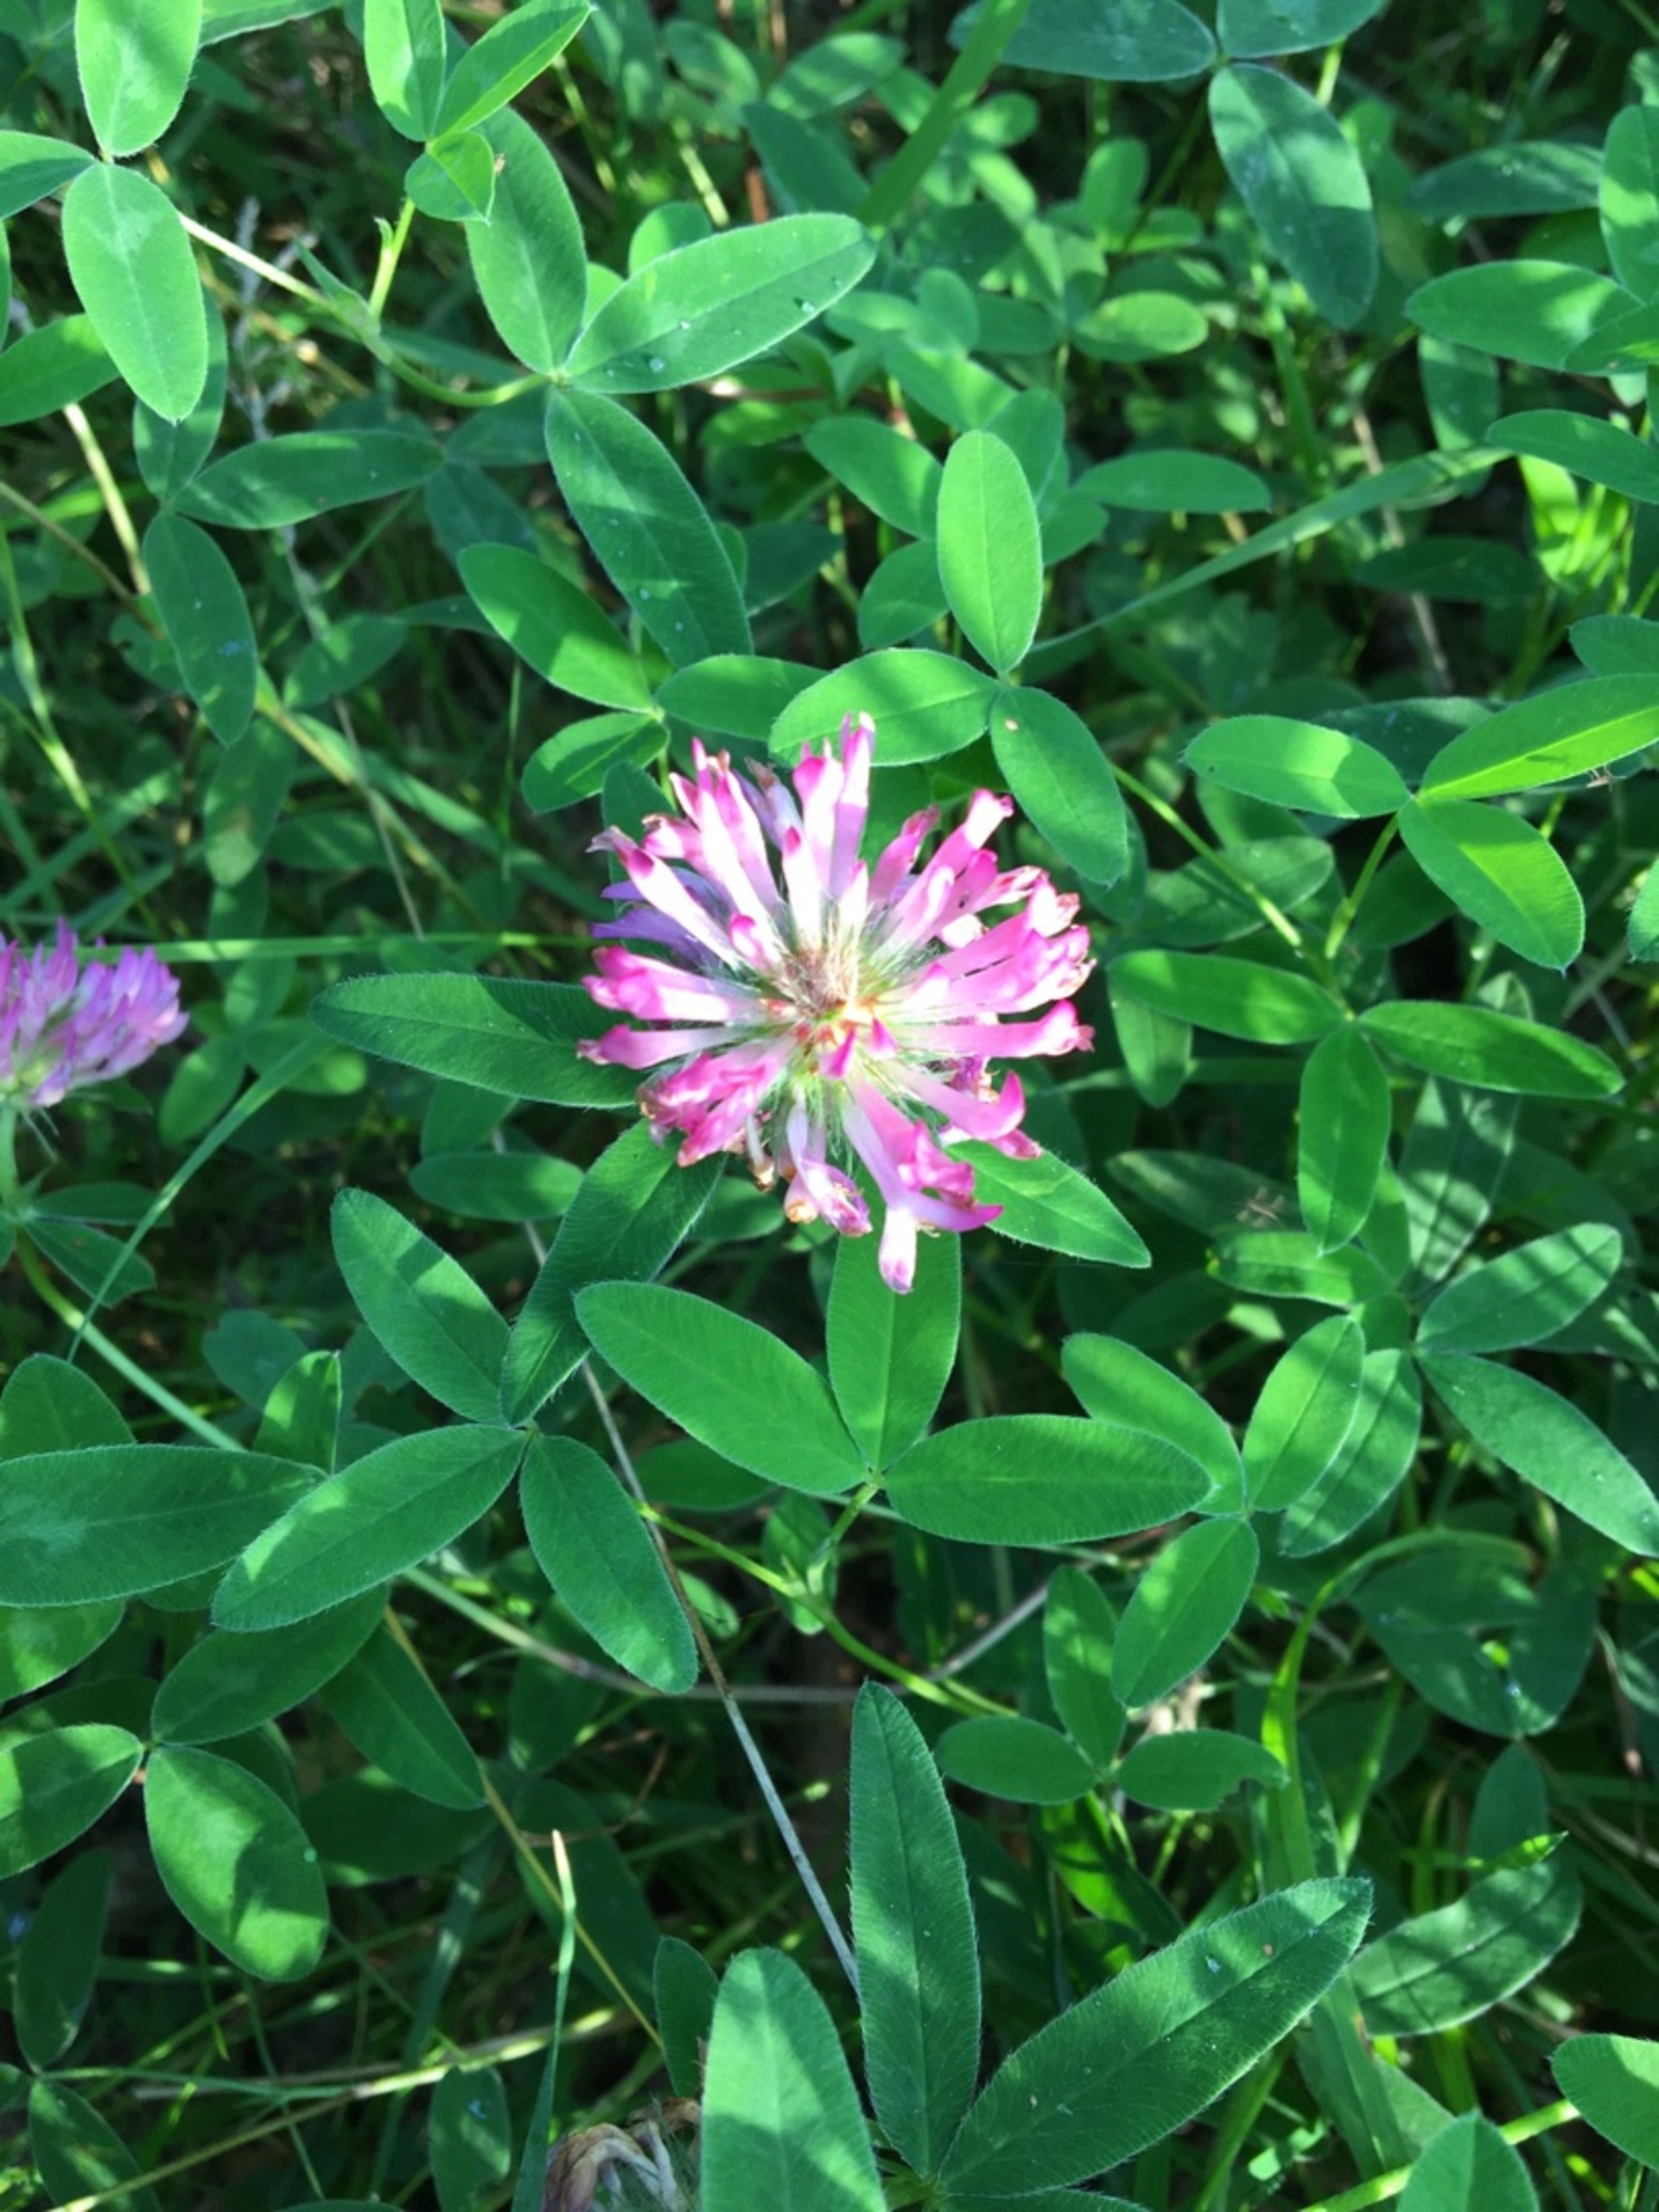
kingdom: Plantae
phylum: Tracheophyta
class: Magnoliopsida
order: Fabales
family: Fabaceae
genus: Trifolium
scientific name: Trifolium medium
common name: Bugtet kløver
